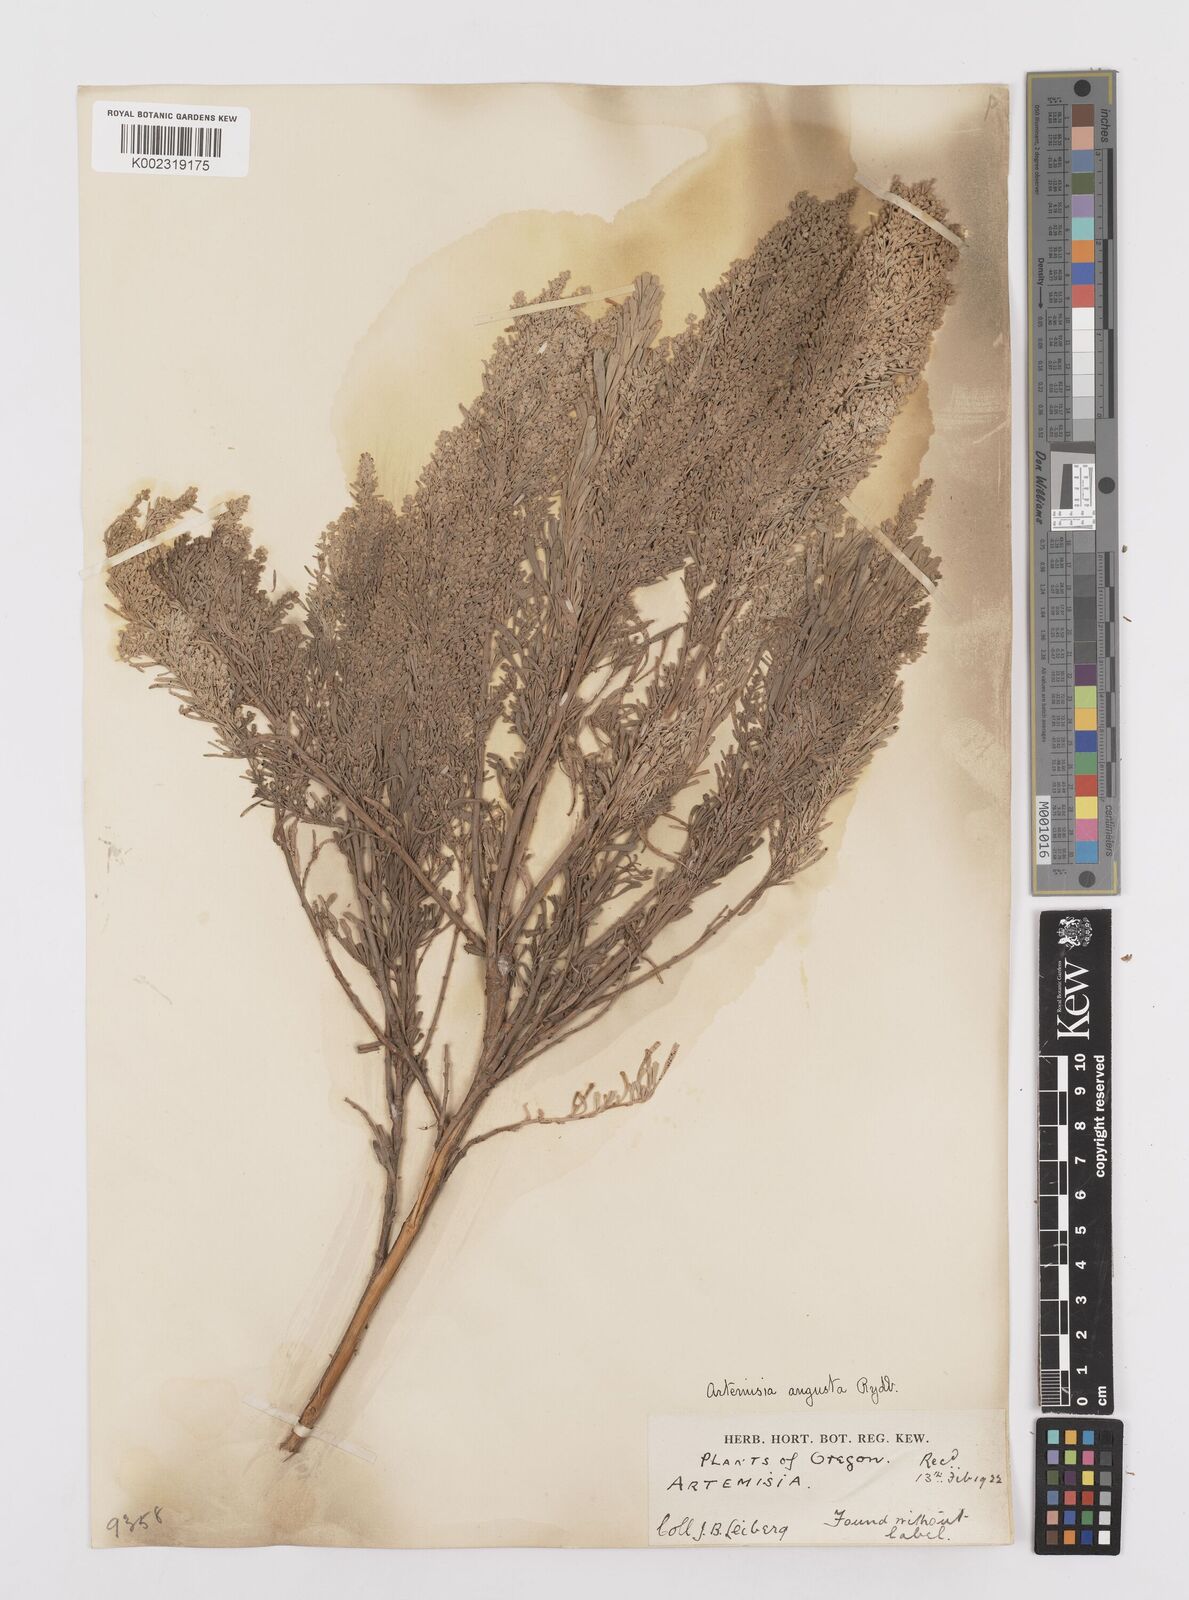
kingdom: Plantae
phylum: Tracheophyta
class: Magnoliopsida
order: Asterales
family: Asteraceae
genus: Artemisia
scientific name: Artemisia tridentata
